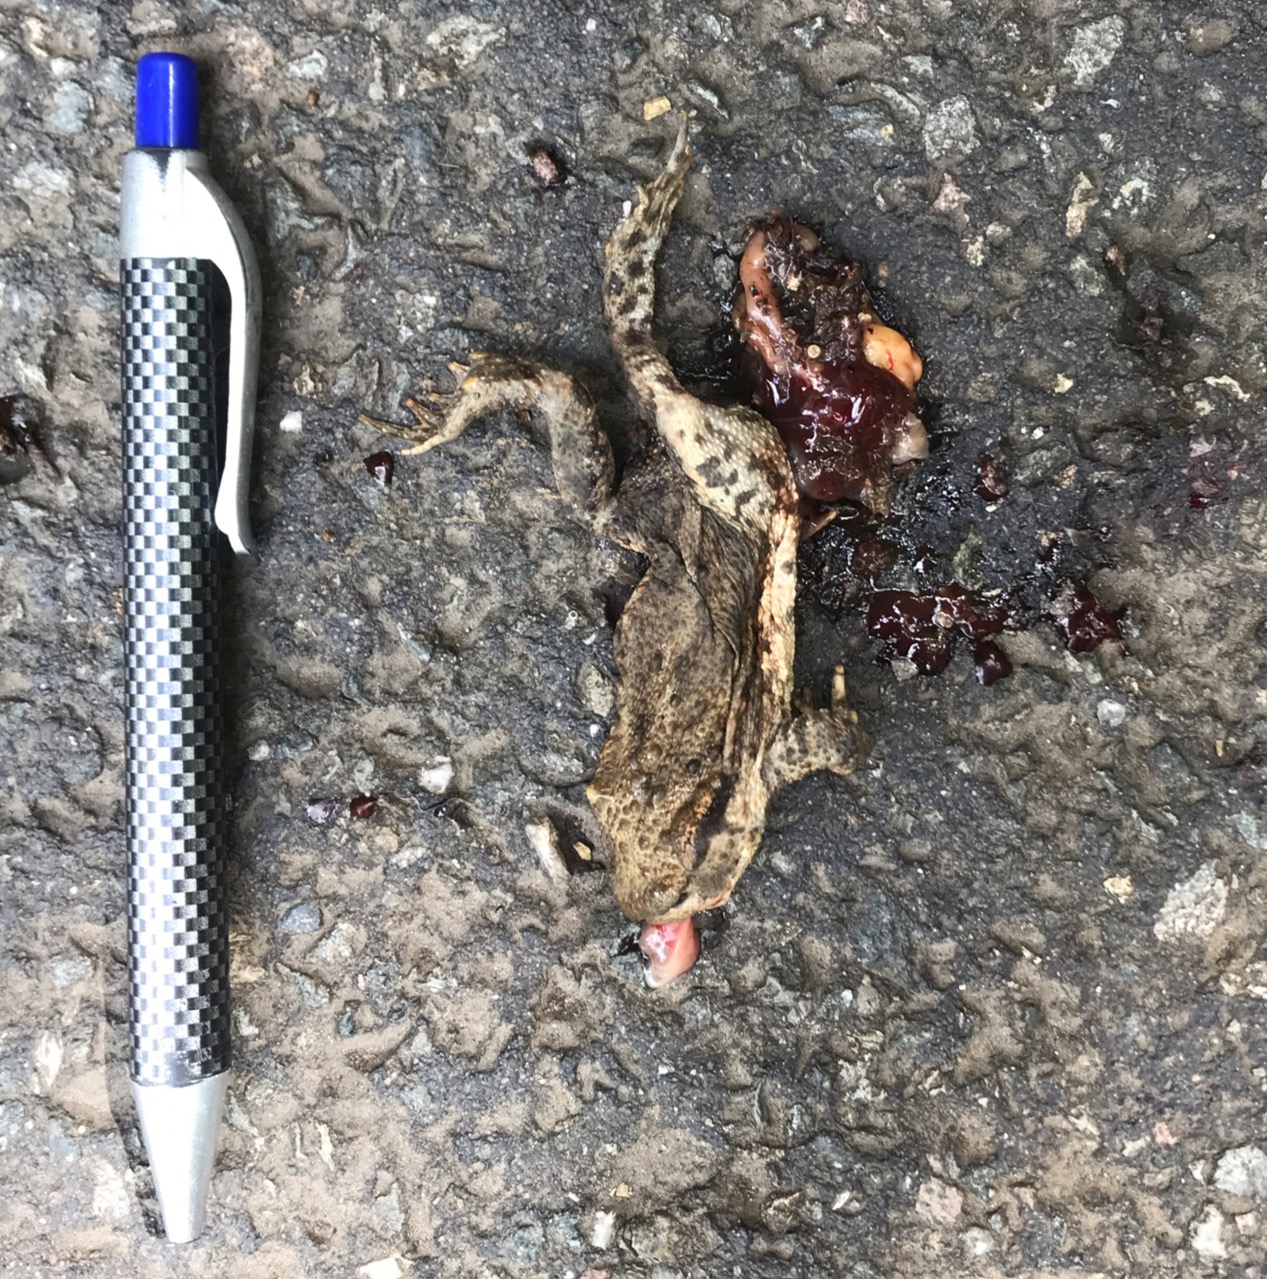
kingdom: Animalia
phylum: Chordata
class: Amphibia
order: Anura
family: Bufonidae
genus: Bufo
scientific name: Bufo bufo
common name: Common toad
